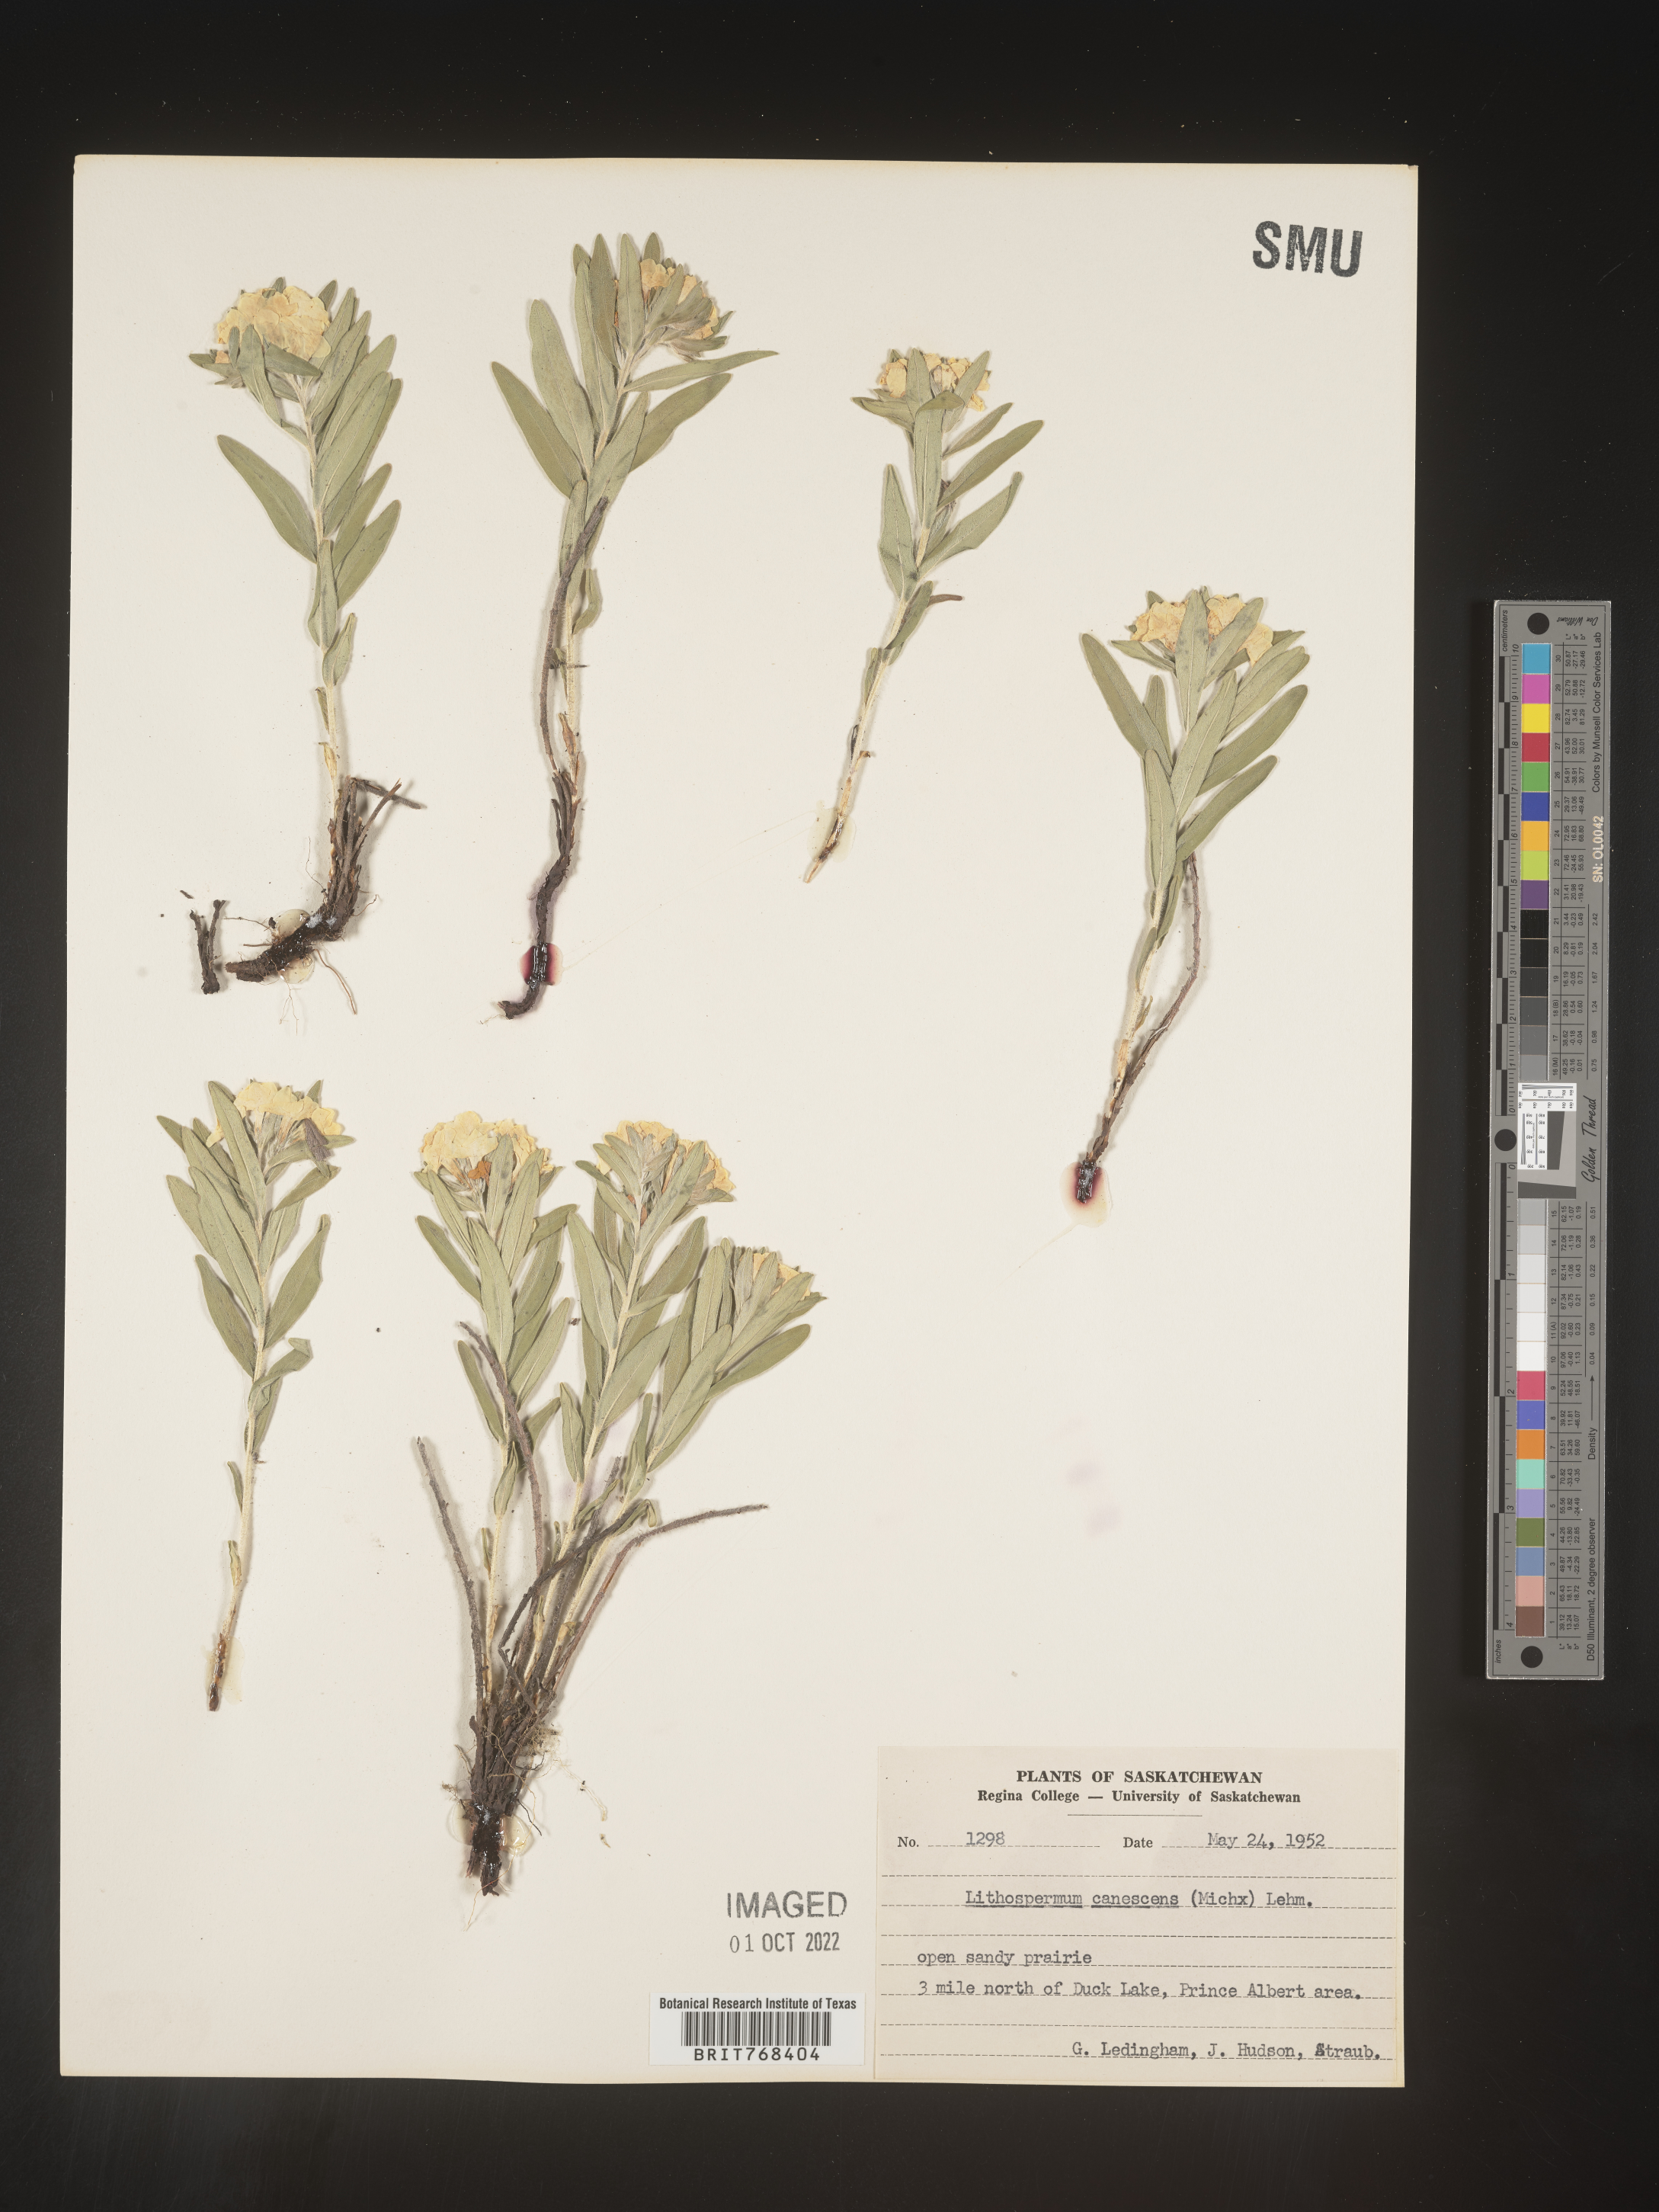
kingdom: Plantae
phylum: Tracheophyta
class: Magnoliopsida
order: Boraginales
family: Boraginaceae
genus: Lithospermum
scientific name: Lithospermum canescens
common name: Hoary puccoon
